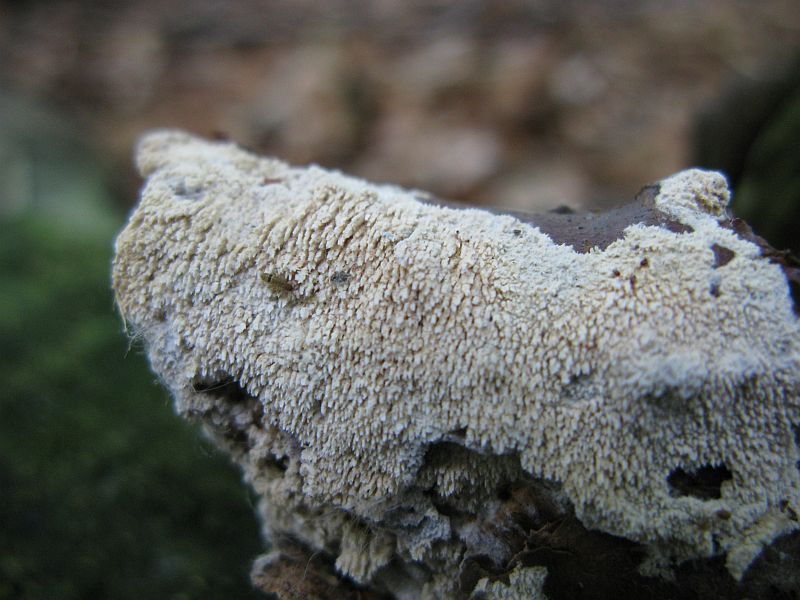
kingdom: Fungi
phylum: Basidiomycota
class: Agaricomycetes
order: Hymenochaetales
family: Schizoporaceae
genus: Schizopora
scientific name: Schizopora paradoxa
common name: hvid tandsvamp
